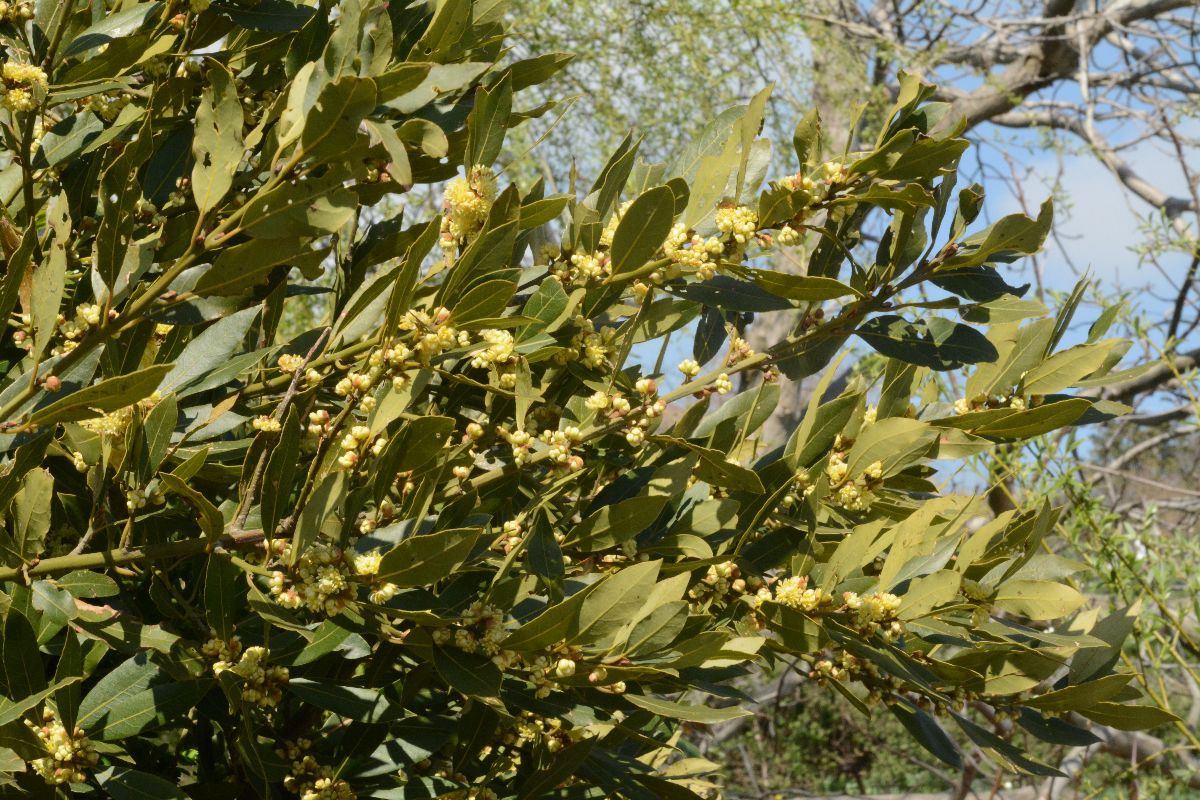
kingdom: Plantae
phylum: Tracheophyta
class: Magnoliopsida
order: Laurales
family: Lauraceae
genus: Laurus
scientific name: Laurus nobilis
